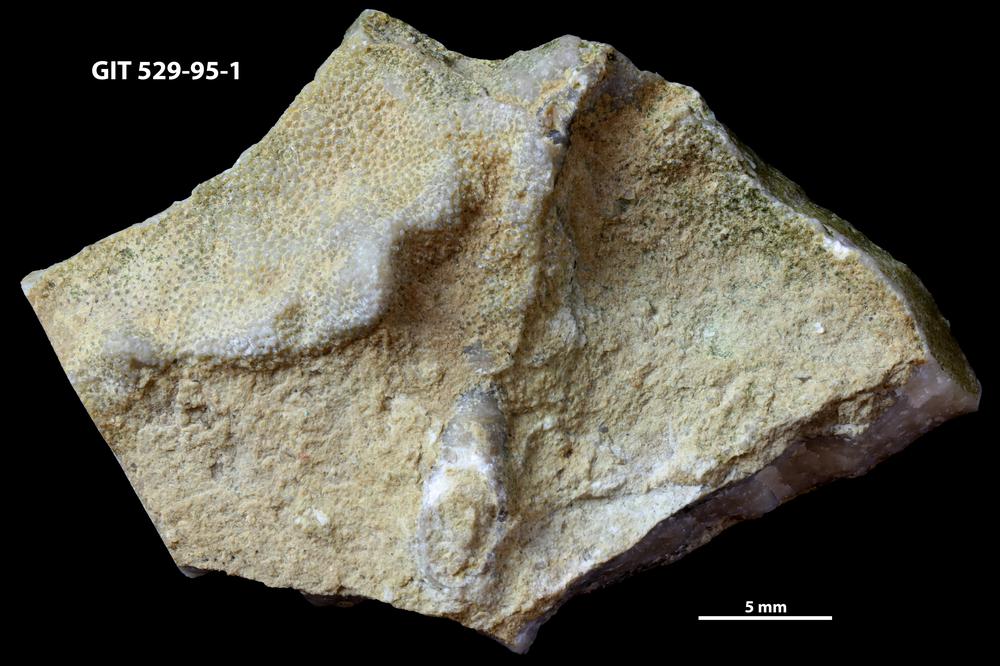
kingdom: Animalia
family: Cornulitidae
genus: Cornulites
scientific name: Cornulites
